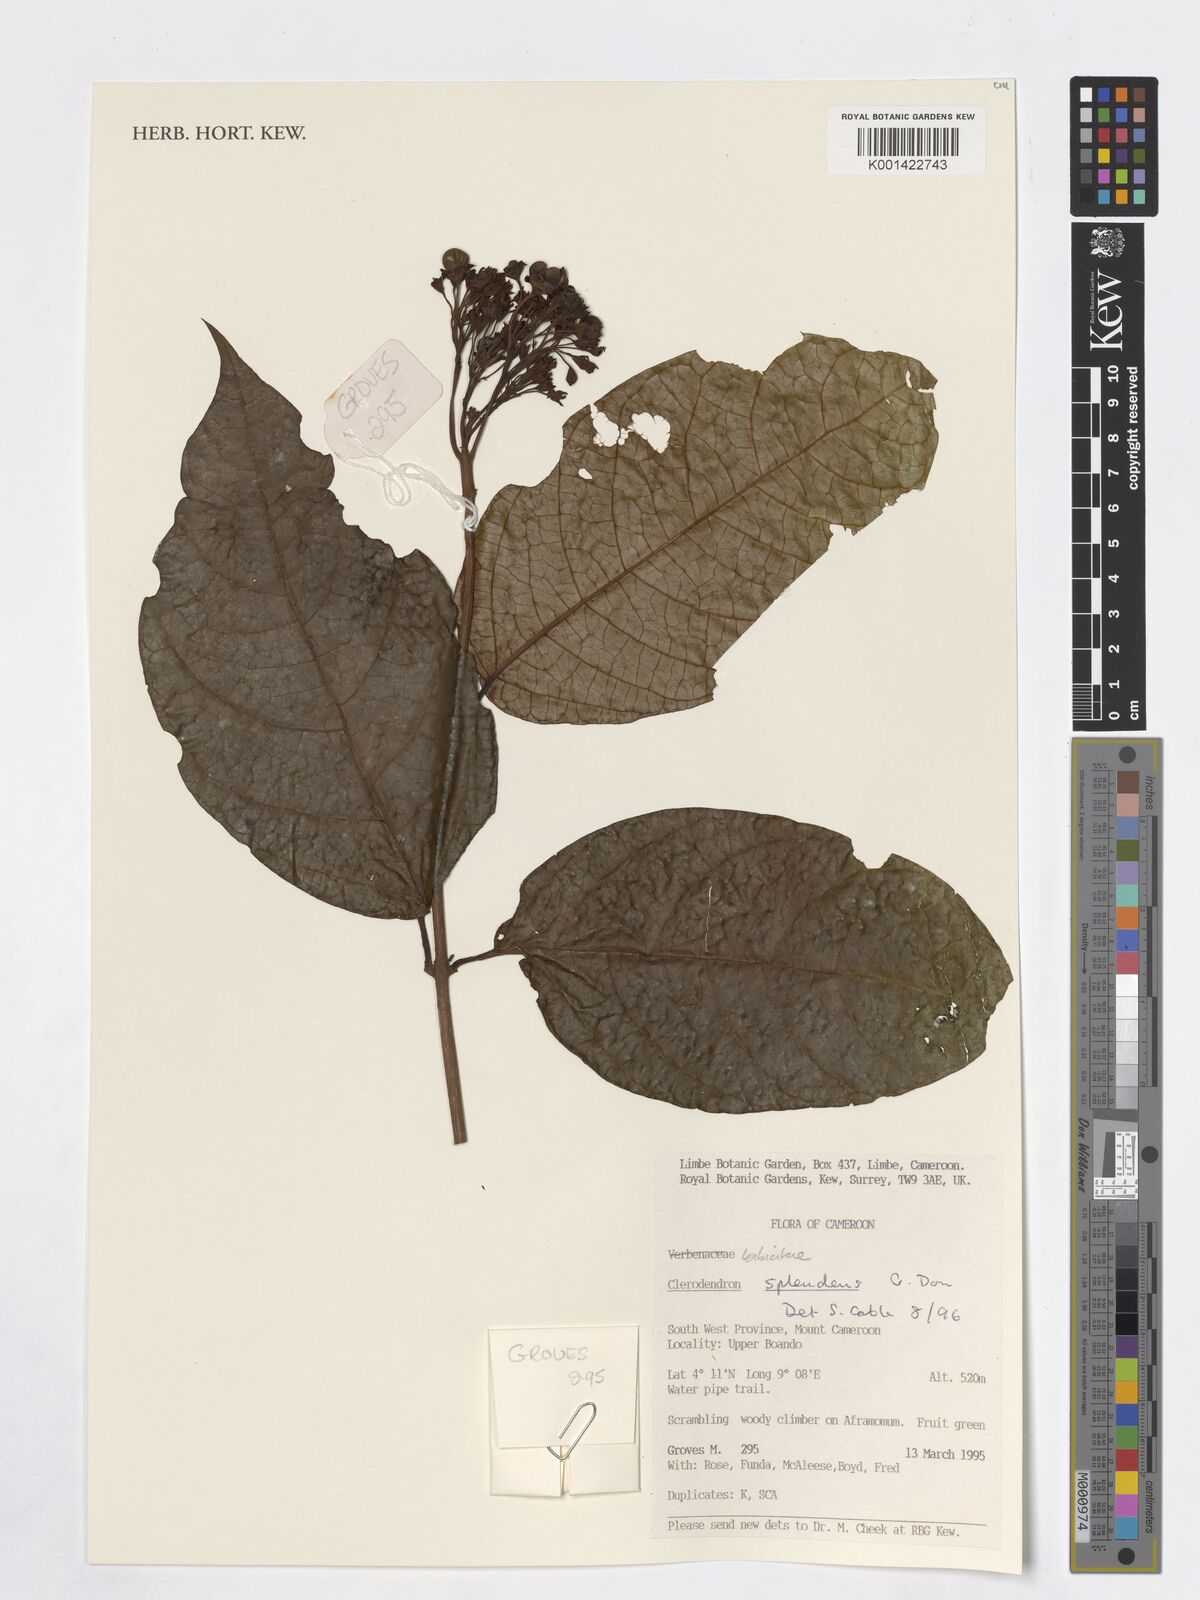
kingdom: Plantae
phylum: Tracheophyta
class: Magnoliopsida
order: Lamiales
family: Lamiaceae
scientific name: Lamiaceae
